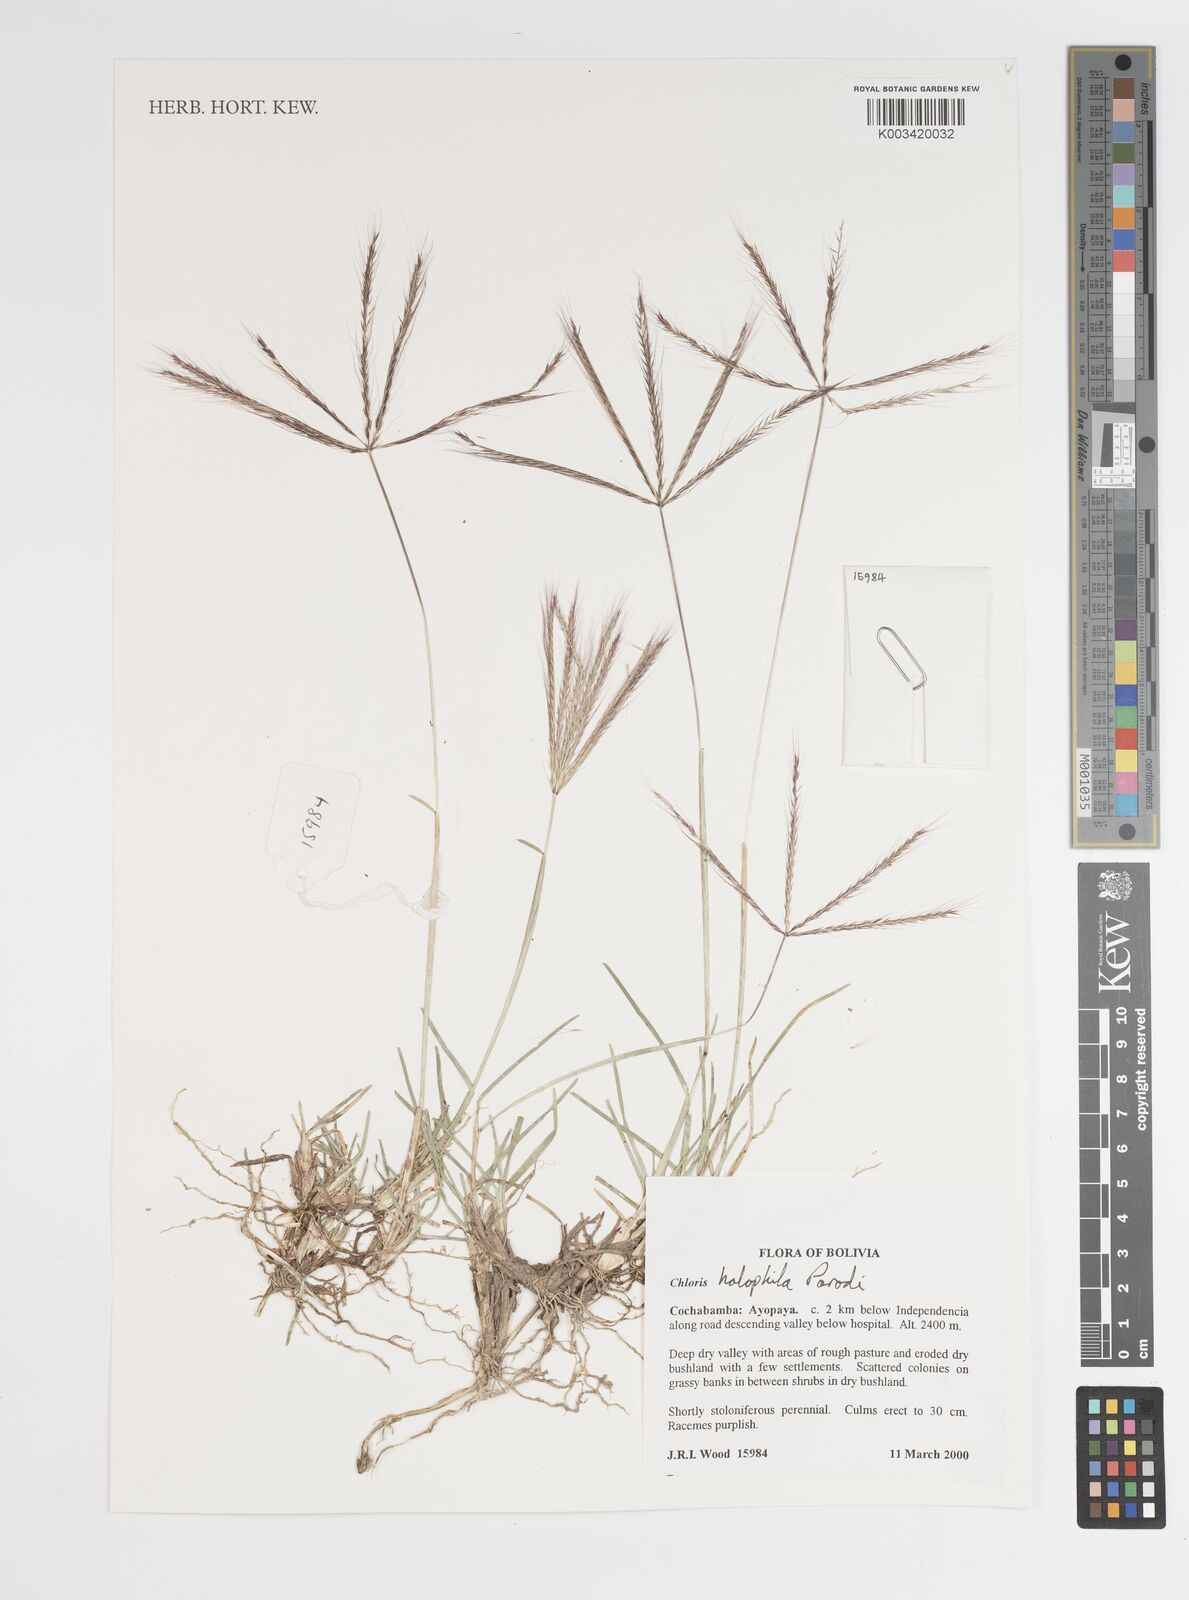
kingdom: Plantae
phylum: Tracheophyta
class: Liliopsida
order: Poales
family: Poaceae
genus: Chloris
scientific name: Chloris halophila
